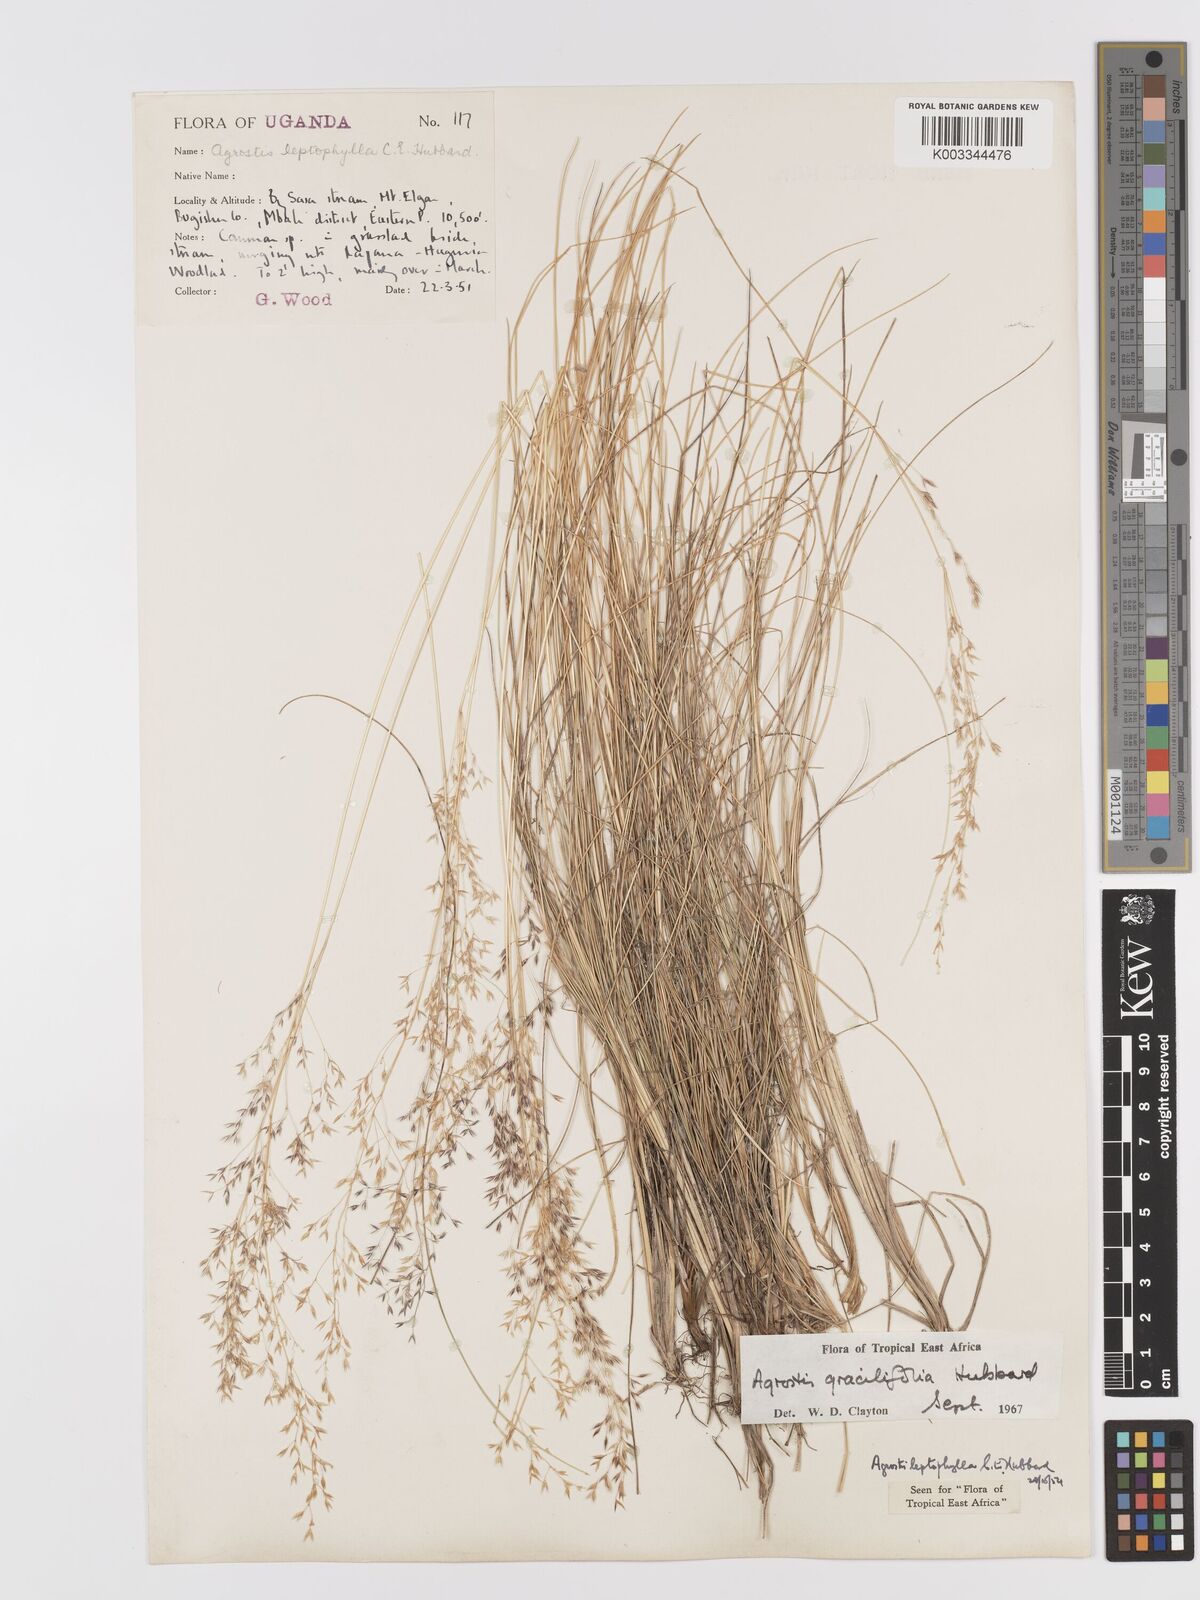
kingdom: Plantae
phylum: Tracheophyta
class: Liliopsida
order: Poales
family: Poaceae
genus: Agrostis
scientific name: Agrostis gracilifolia
